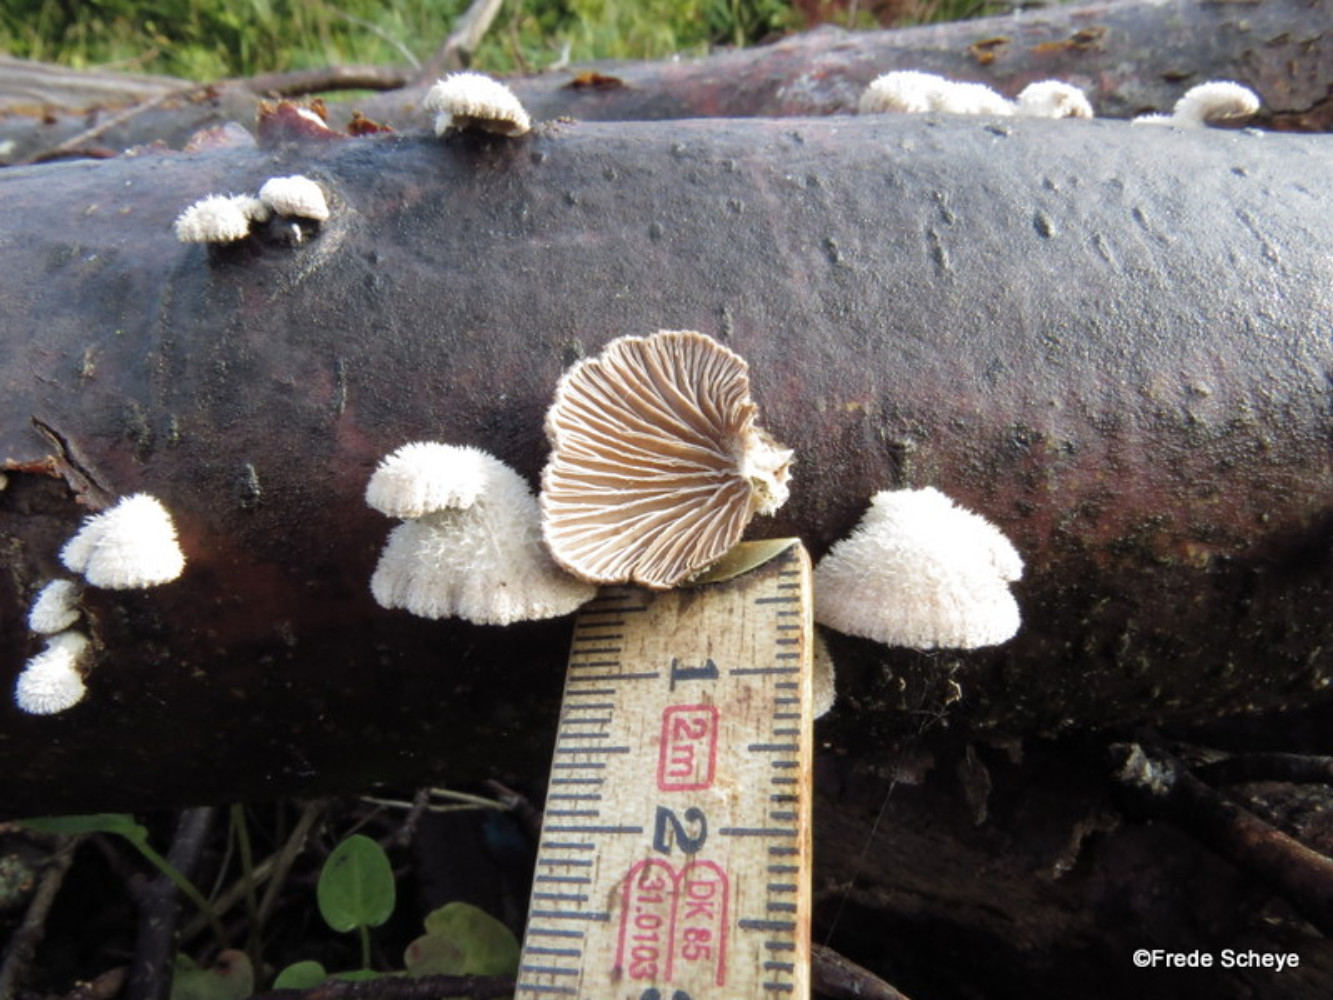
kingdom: Fungi
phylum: Basidiomycota
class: Agaricomycetes
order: Agaricales
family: Schizophyllaceae
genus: Schizophyllum
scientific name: Schizophyllum commune
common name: kløvblad
